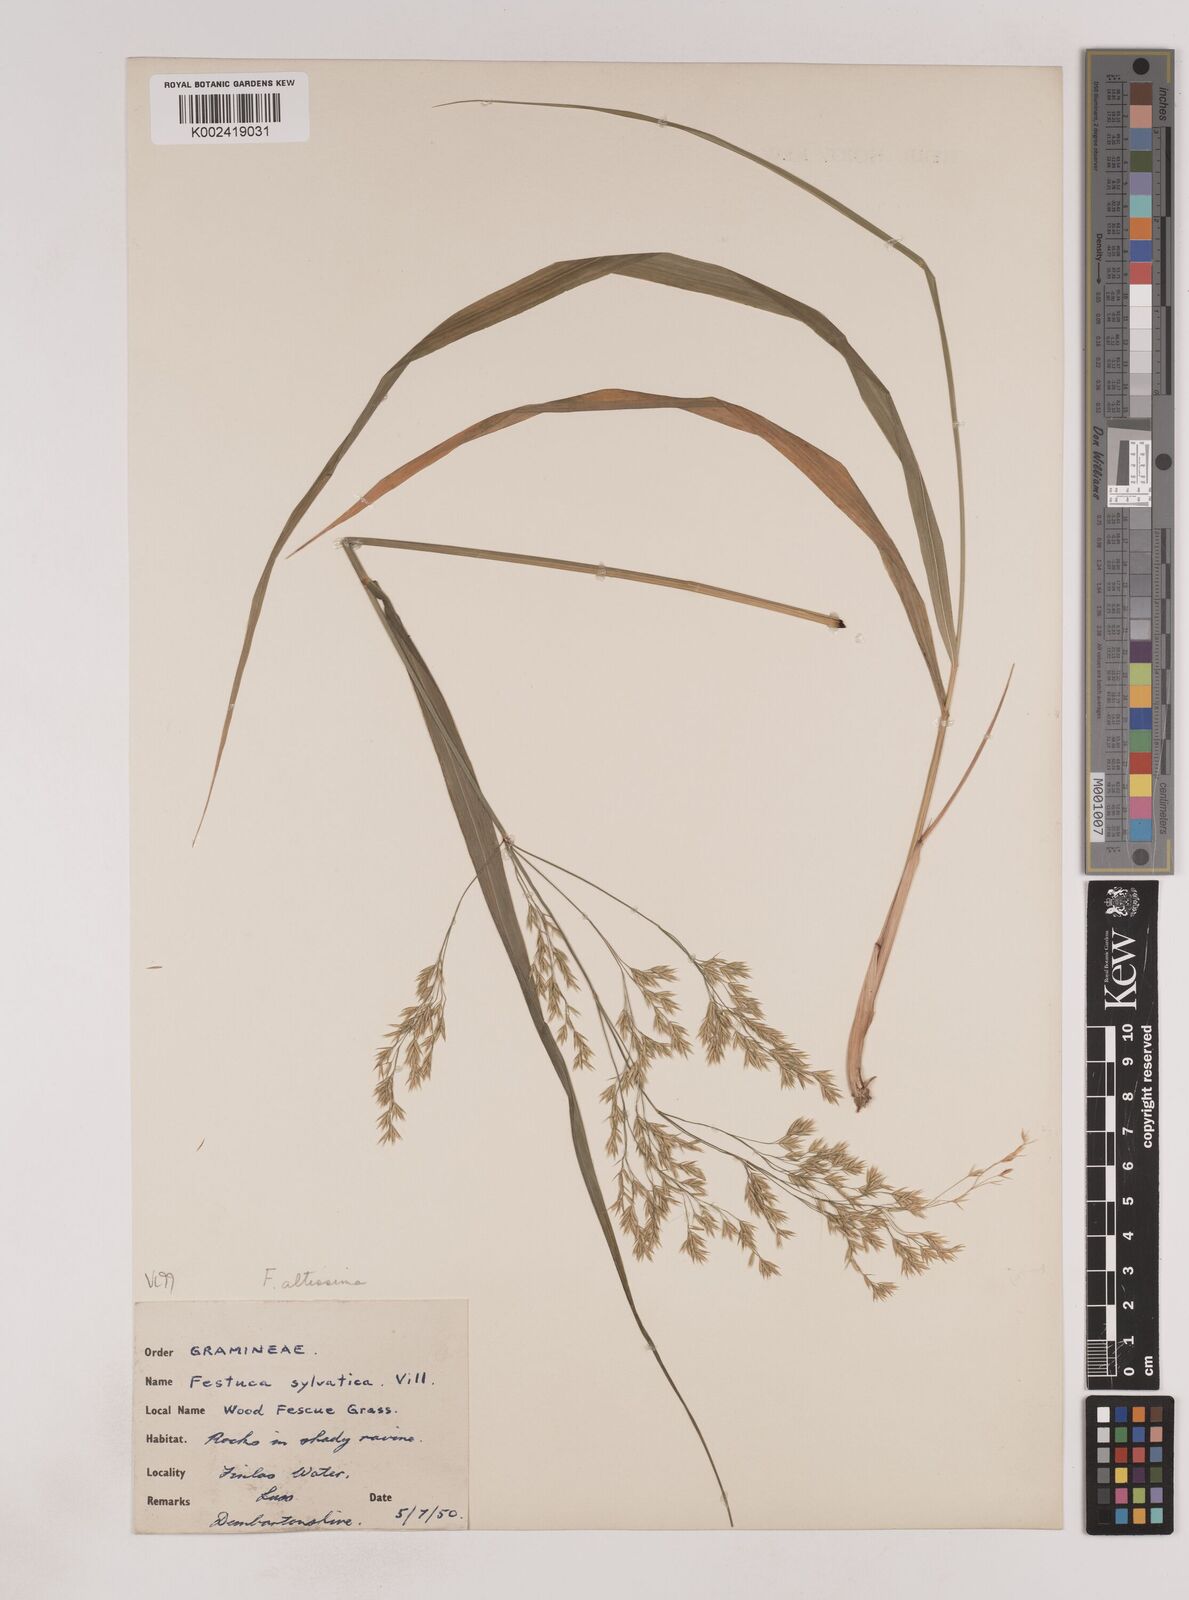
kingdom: Plantae
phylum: Tracheophyta
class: Liliopsida
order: Poales
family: Poaceae
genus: Festuca
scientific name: Festuca drymeja
